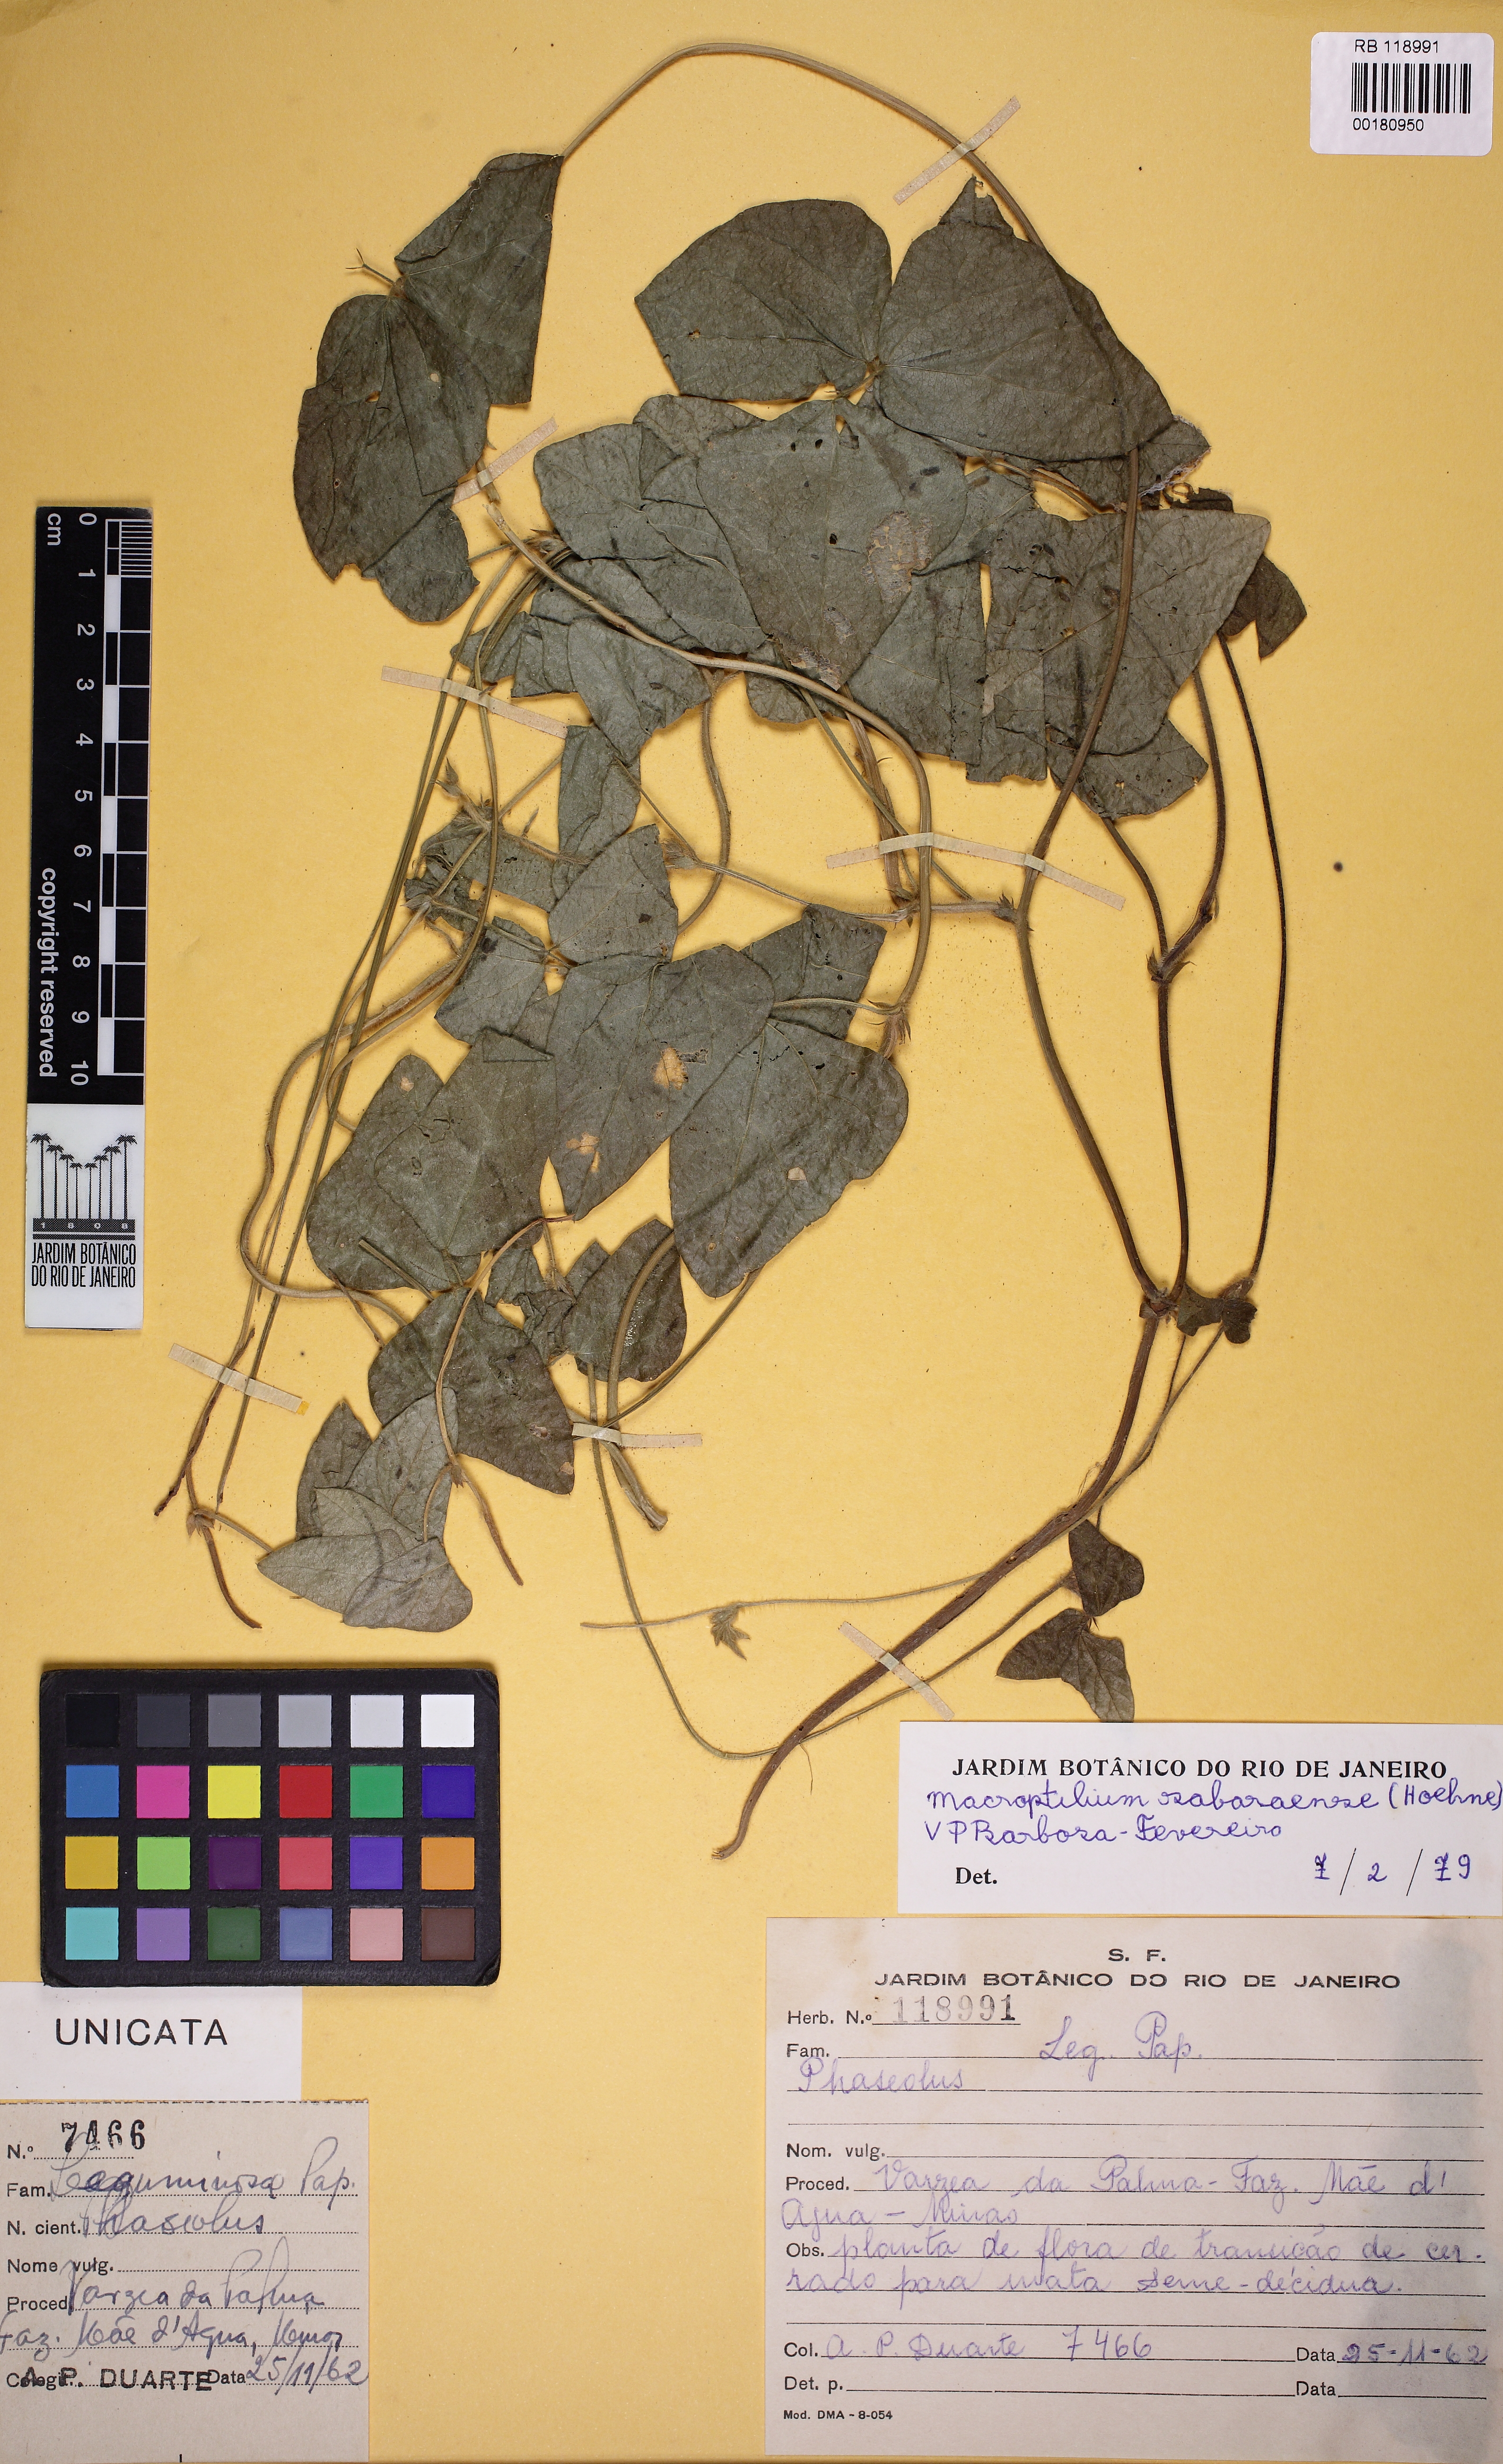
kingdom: Plantae
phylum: Tracheophyta
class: Magnoliopsida
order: Fabales
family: Fabaceae
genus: Macroptilium
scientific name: Macroptilium sabaraense
